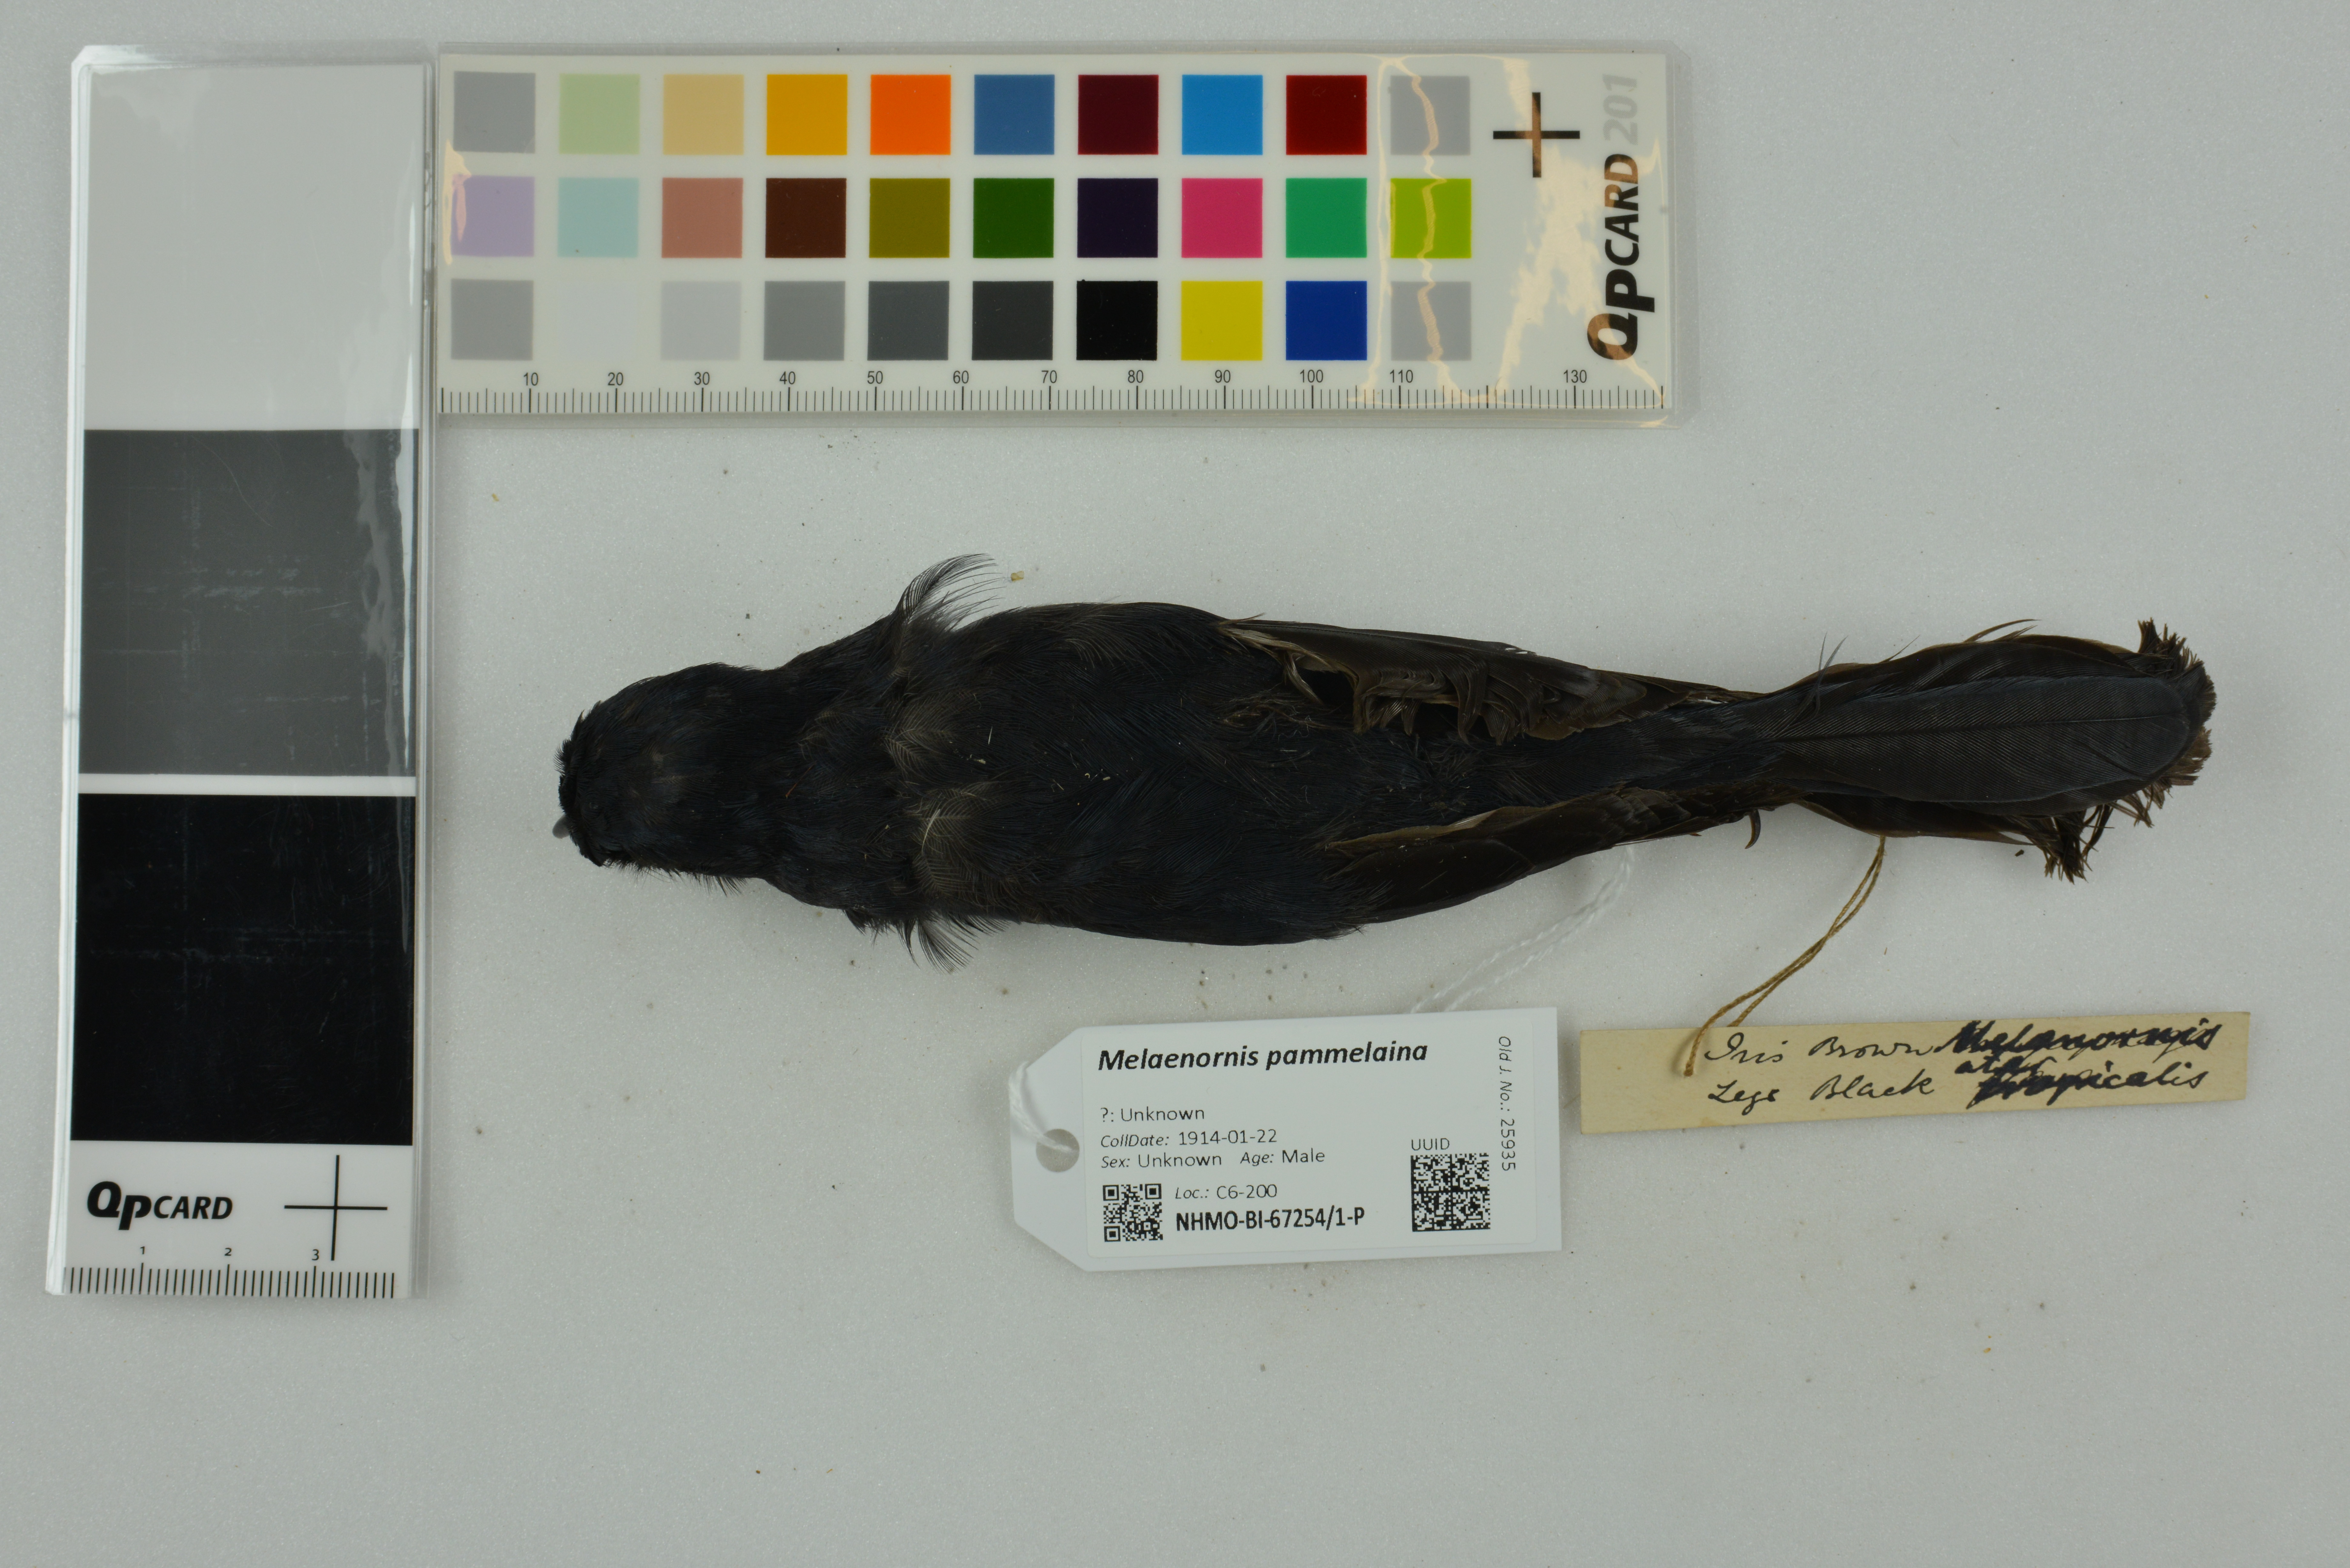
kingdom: Animalia
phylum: Chordata
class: Aves
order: Passeriformes
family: Muscicapidae
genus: Melaenornis
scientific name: Melaenornis pammelaina
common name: Southern black flycatcher
